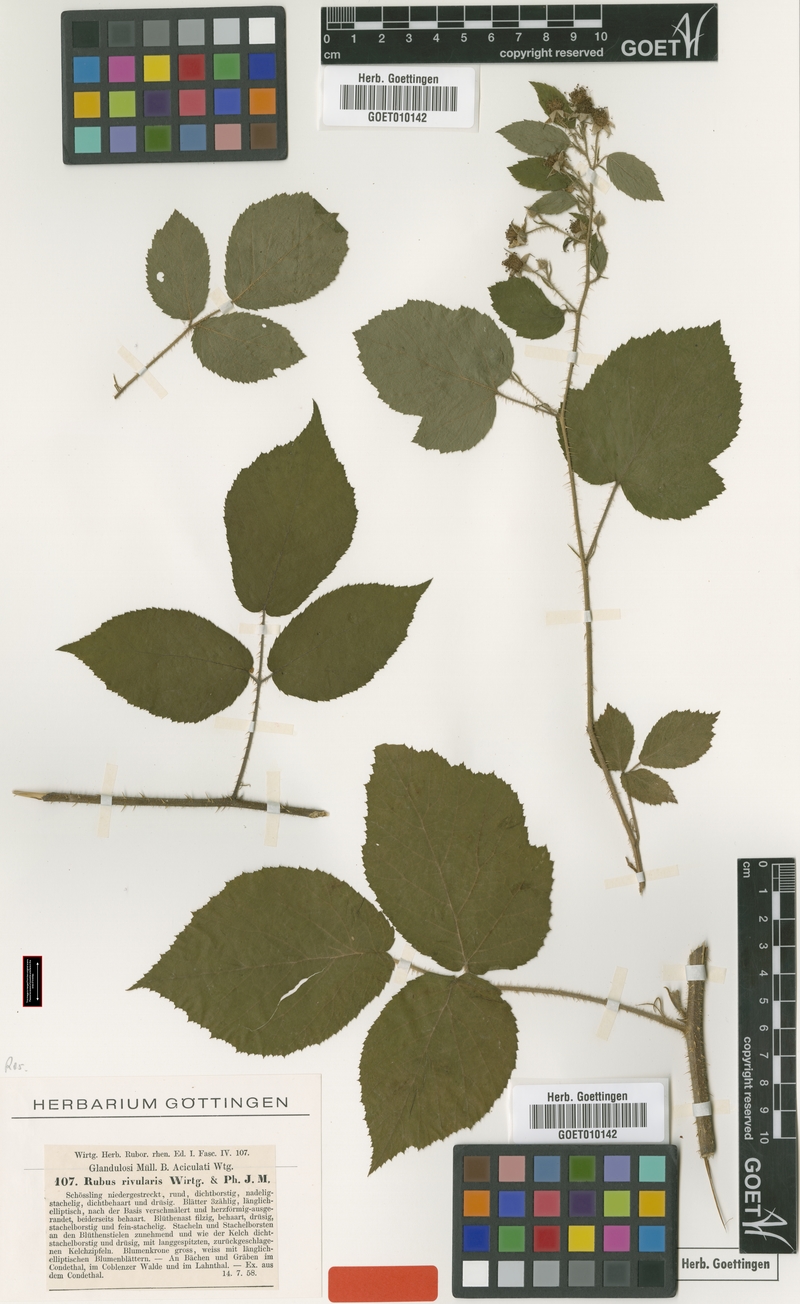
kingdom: Plantae
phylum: Tracheophyta
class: Magnoliopsida
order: Rosales
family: Rosaceae
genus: Rubus
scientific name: Rubus rivularis
